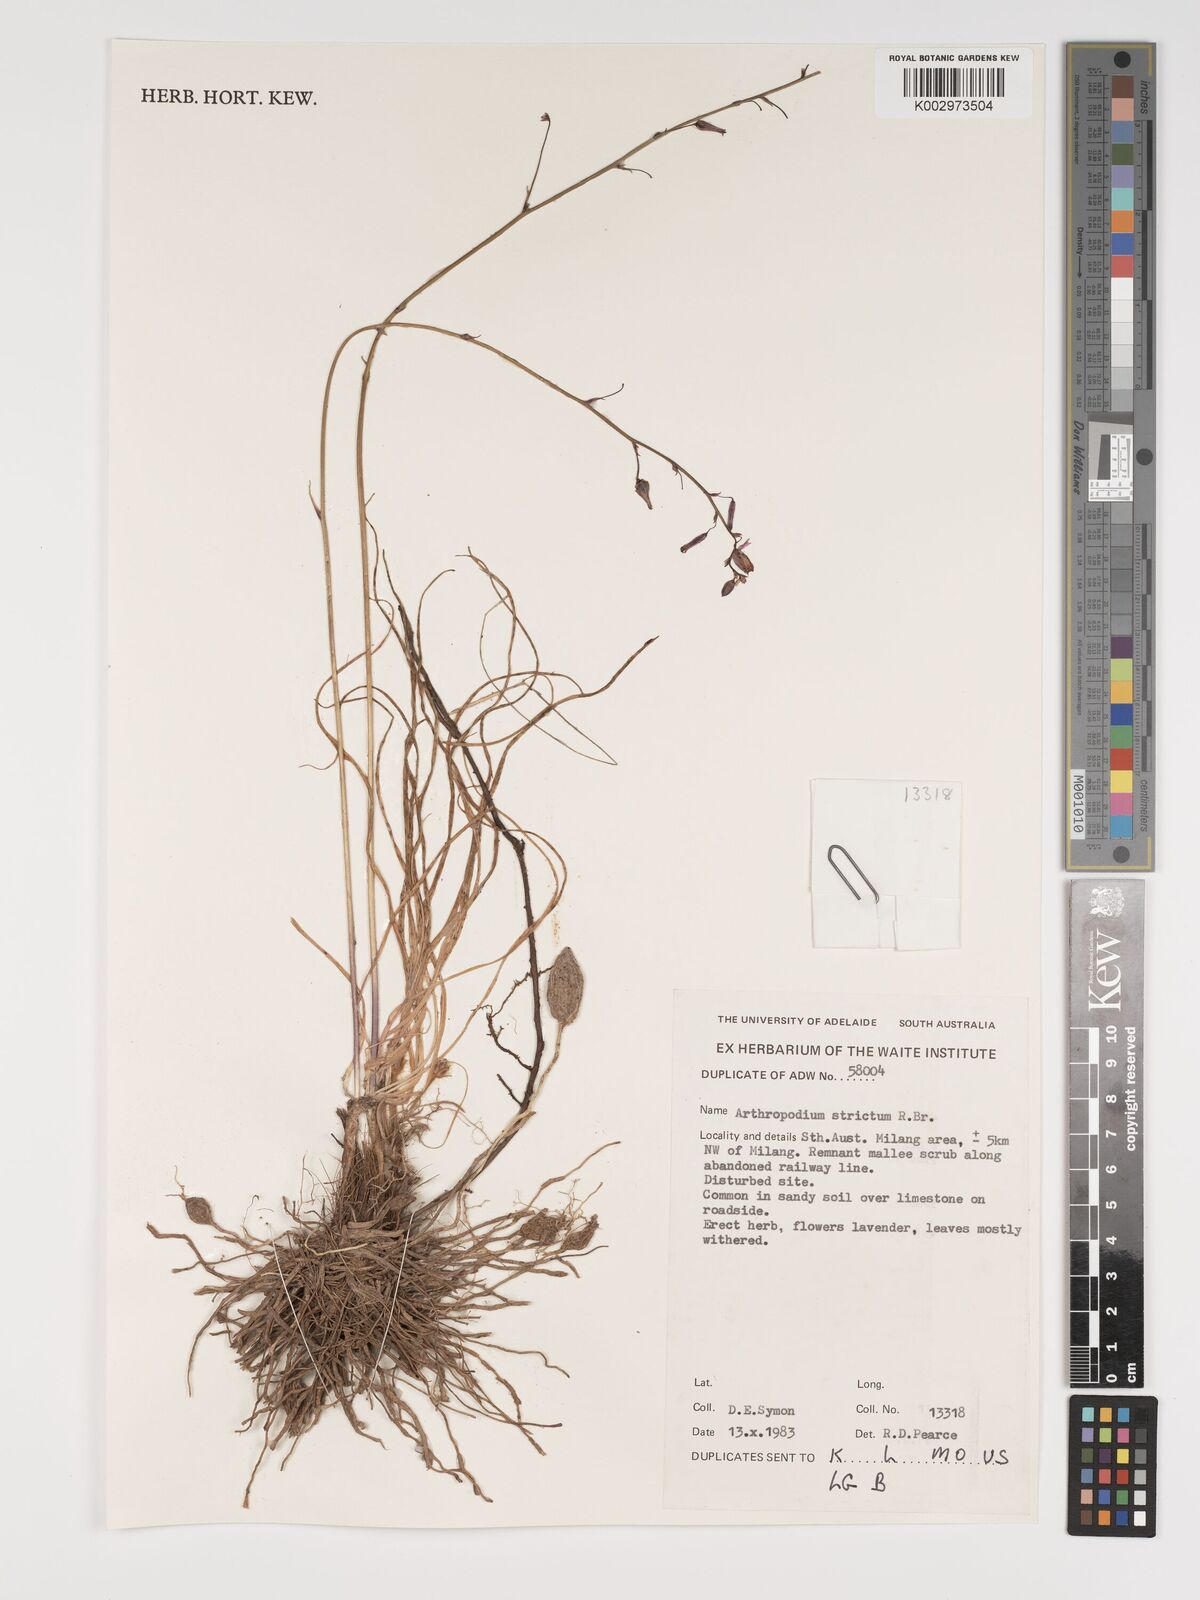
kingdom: Plantae
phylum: Tracheophyta
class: Liliopsida
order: Asparagales
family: Asparagaceae
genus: Arthropodium
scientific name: Arthropodium strictum
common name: Chocolate-lily
